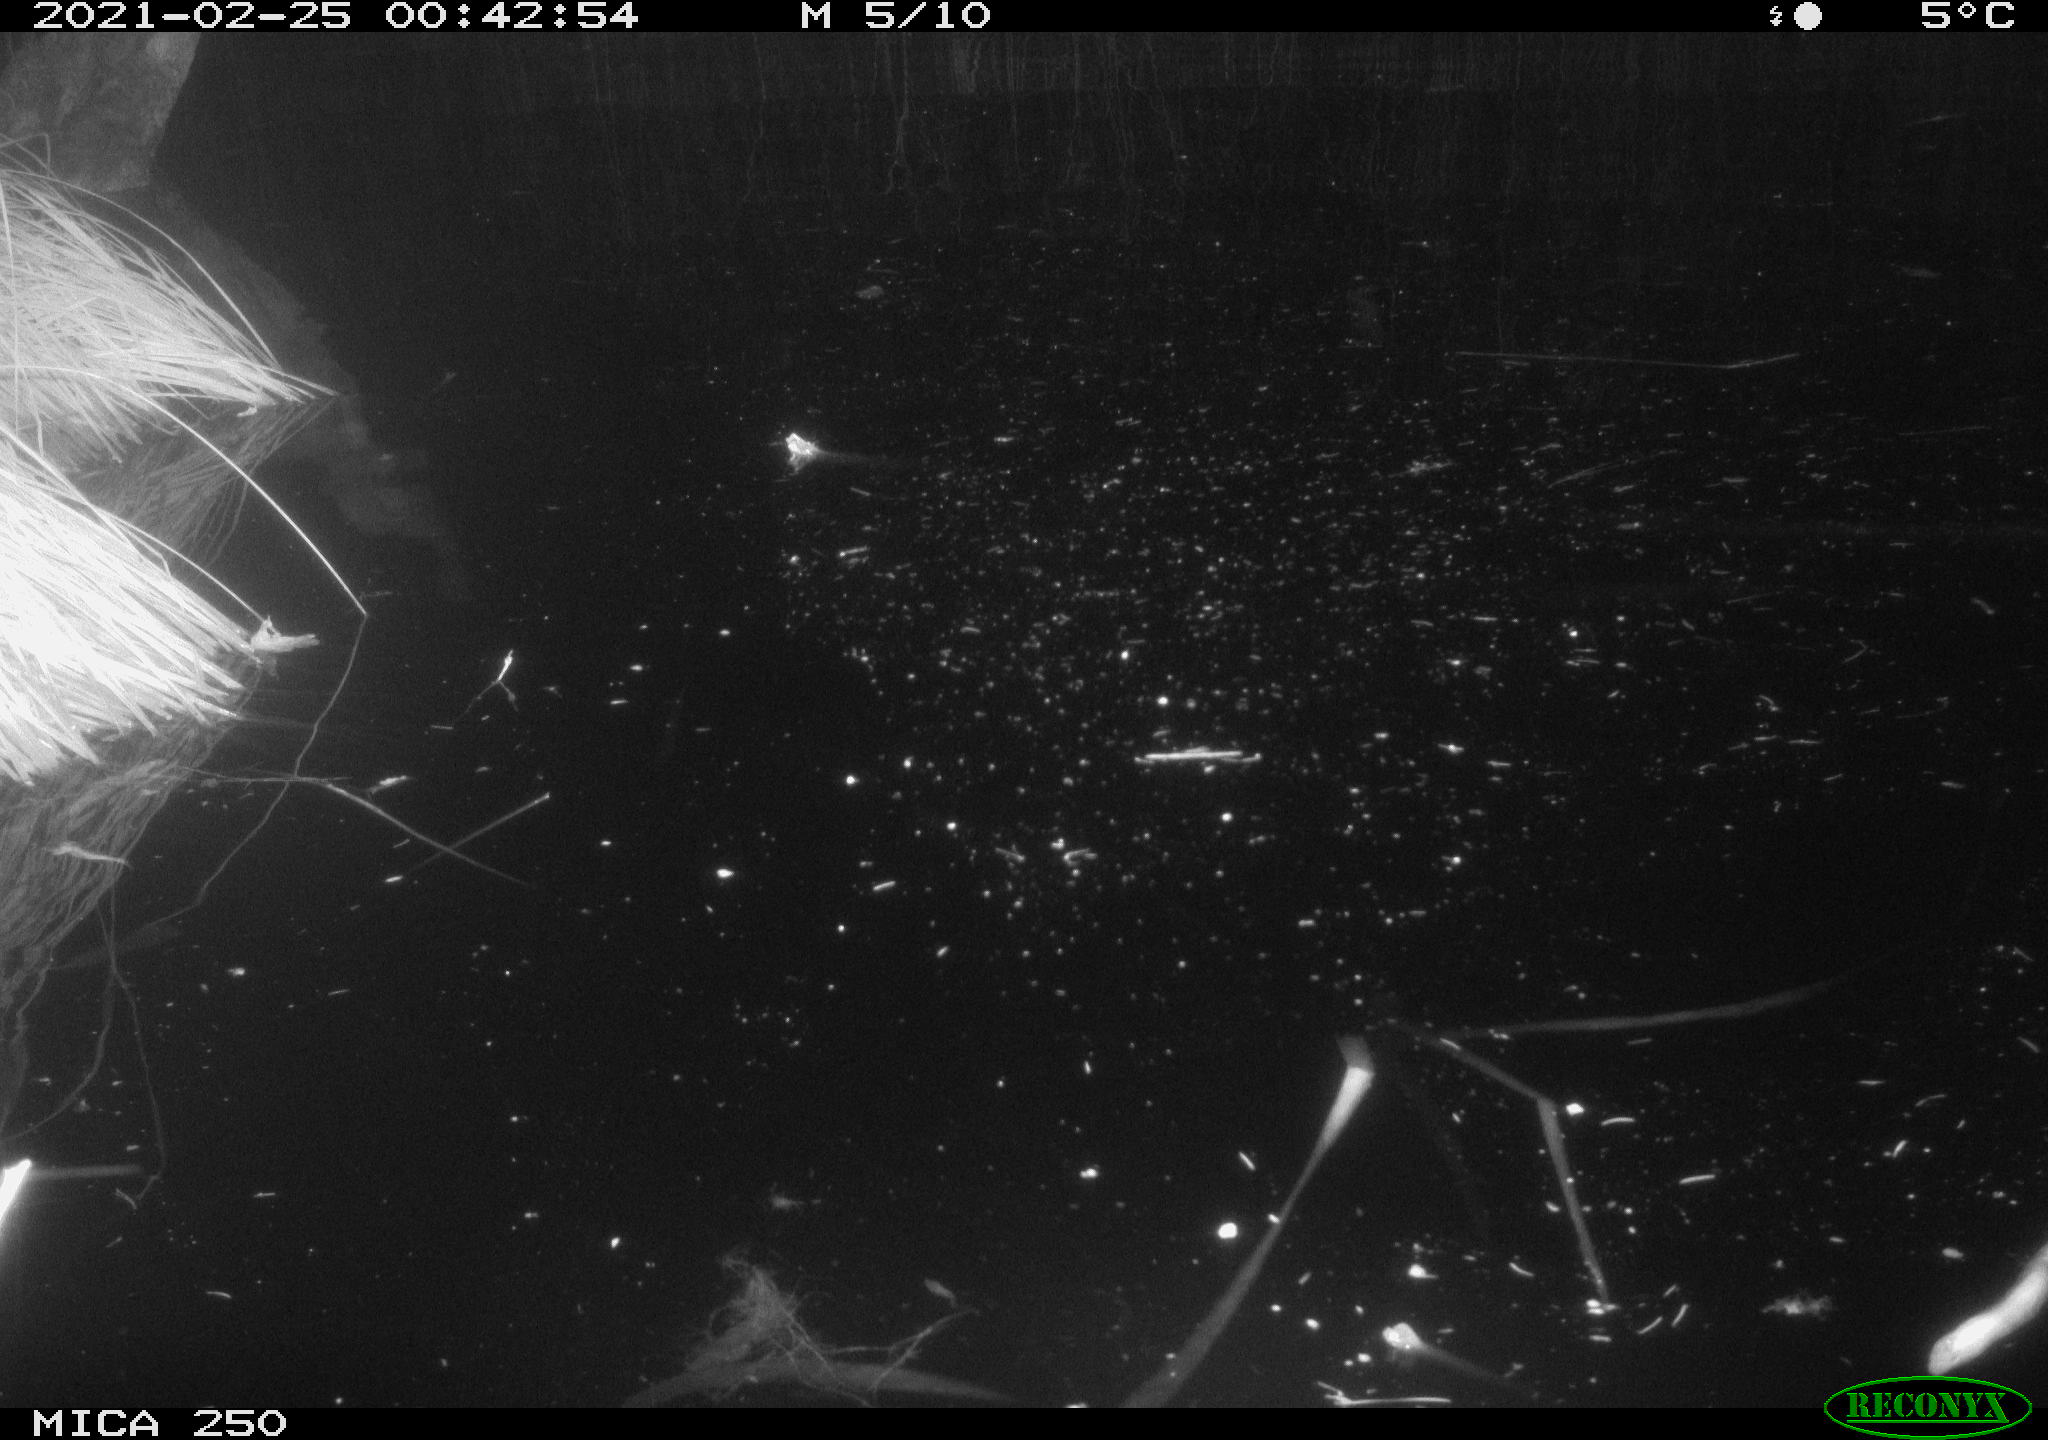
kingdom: Animalia
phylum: Chordata
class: Mammalia
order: Rodentia
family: Castoridae
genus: Castor
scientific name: Castor fiber
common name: Eurasian beaver
